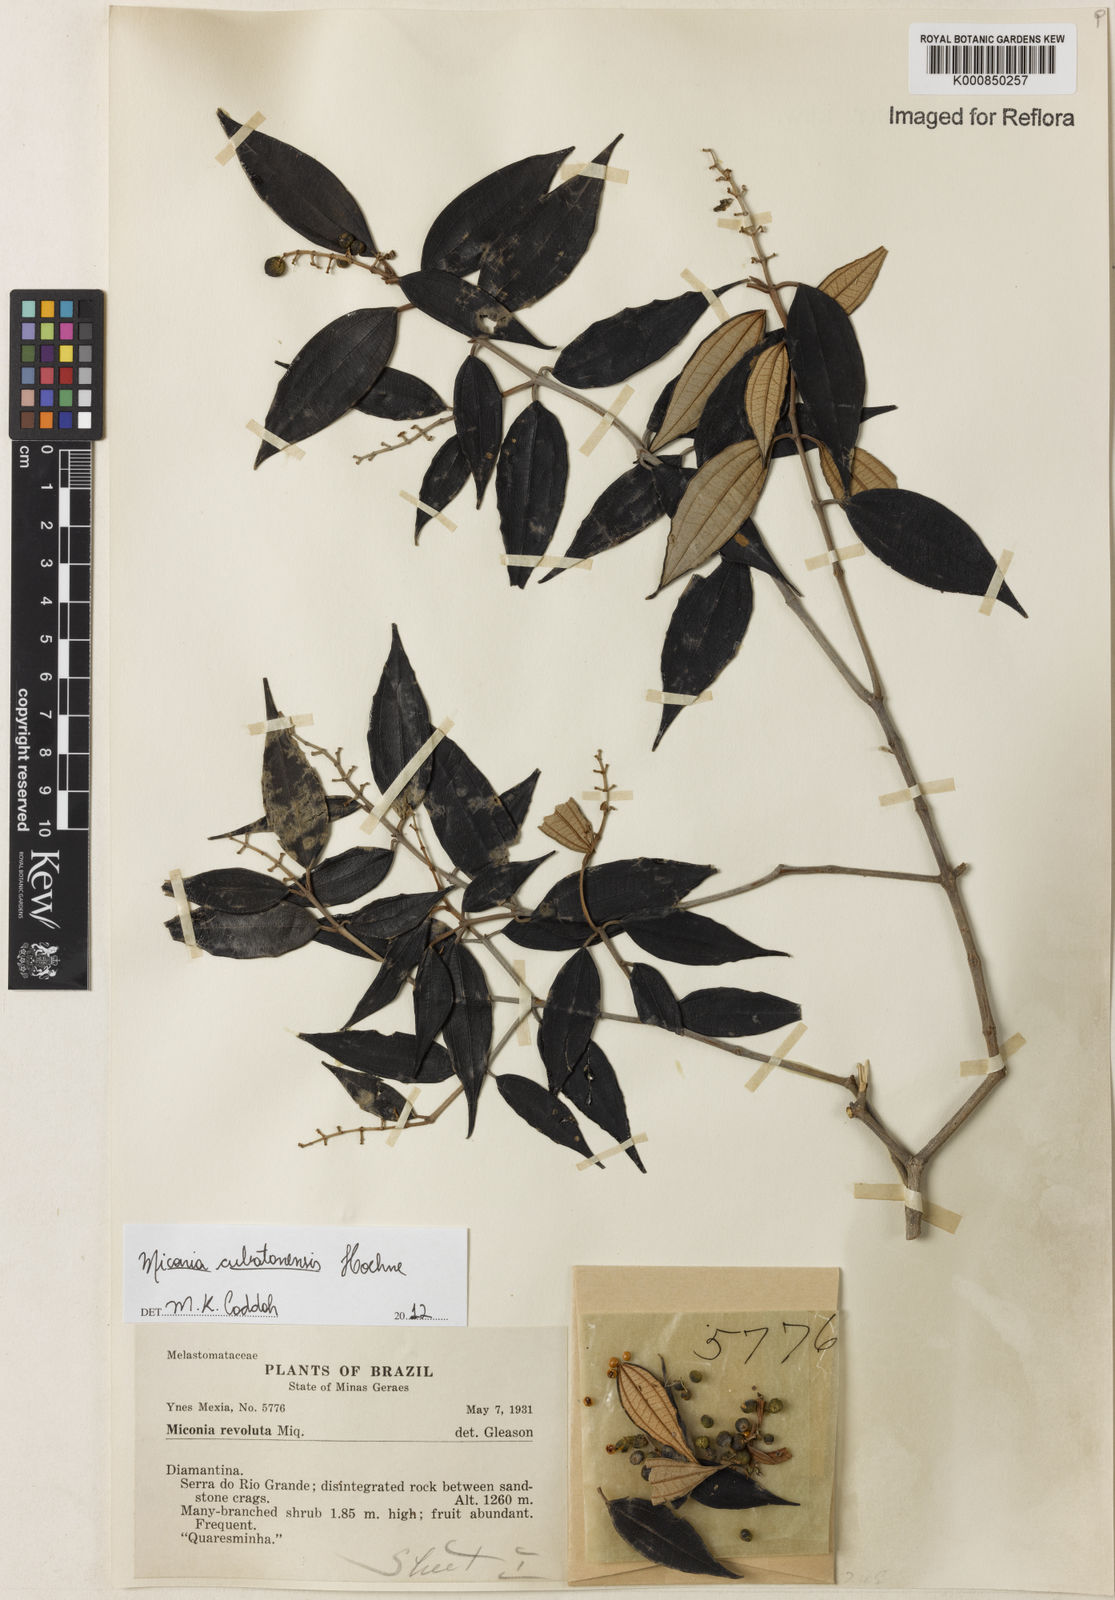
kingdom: Plantae
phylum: Tracheophyta
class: Magnoliopsida
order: Myrtales
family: Melastomataceae
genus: Miconia
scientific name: Miconia cubatanensis
